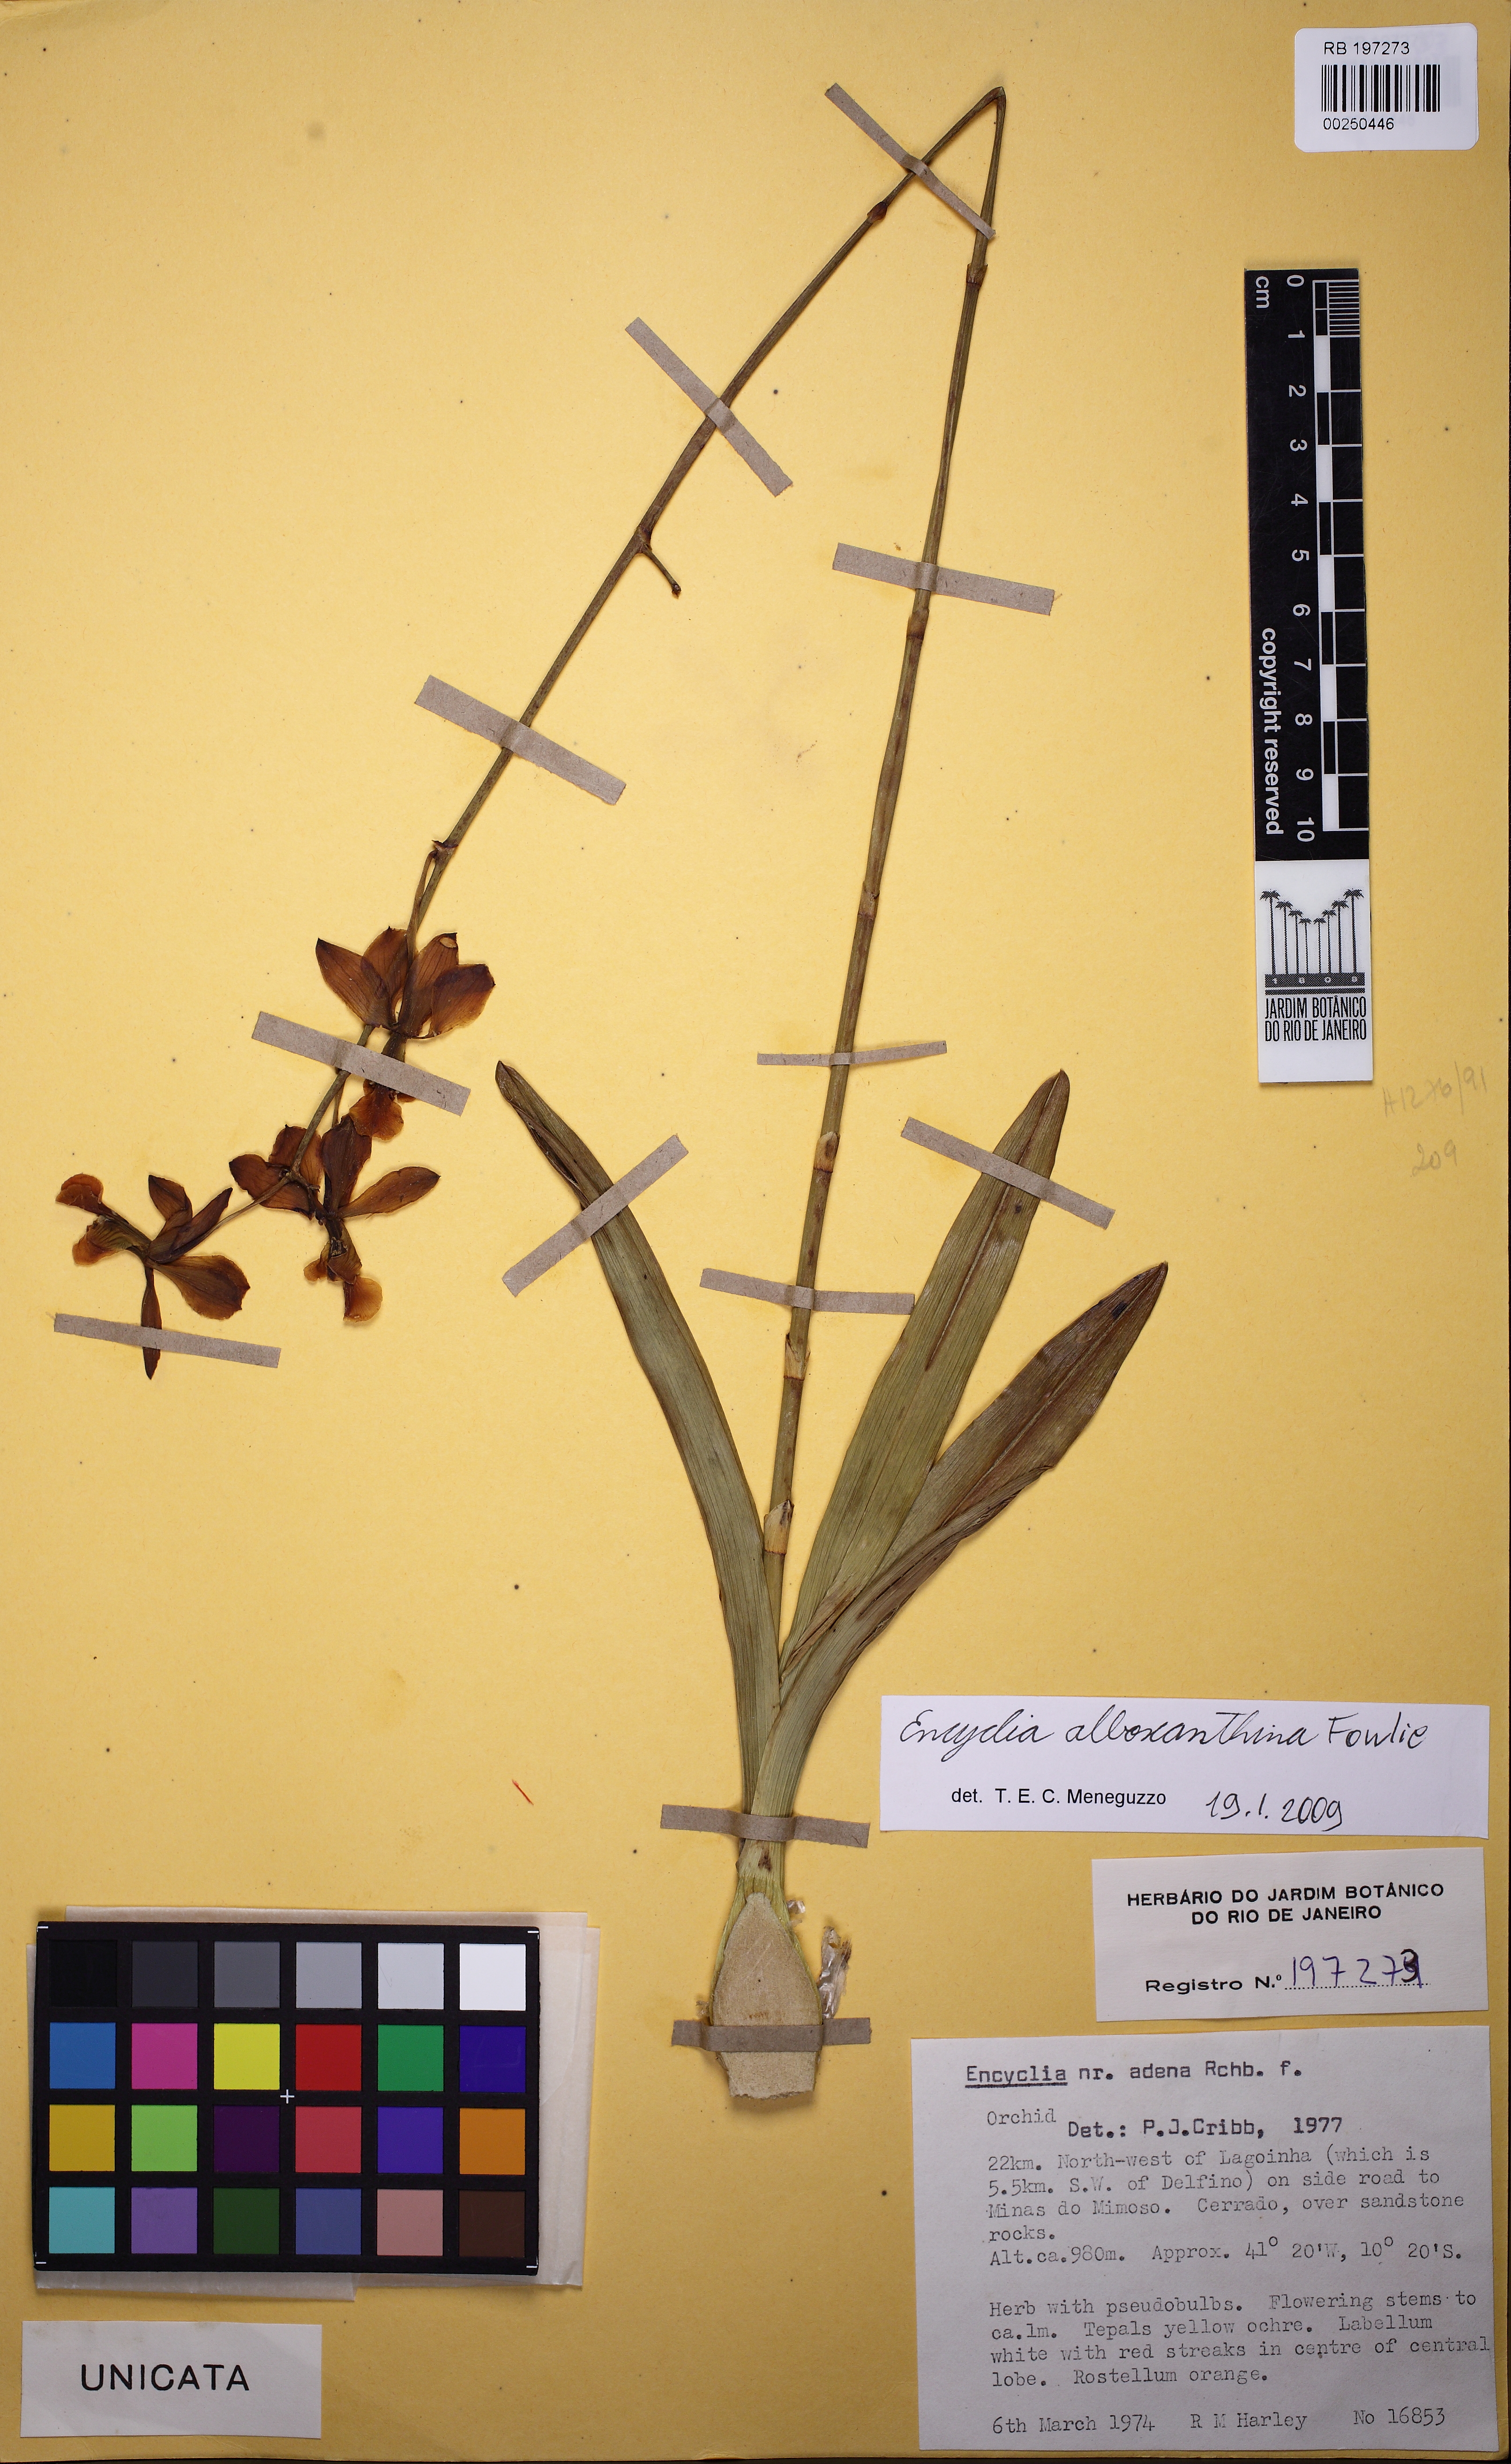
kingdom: Plantae
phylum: Tracheophyta
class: Liliopsida
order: Asparagales
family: Orchidaceae
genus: Encyclia
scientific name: Encyclia alboxanthina
